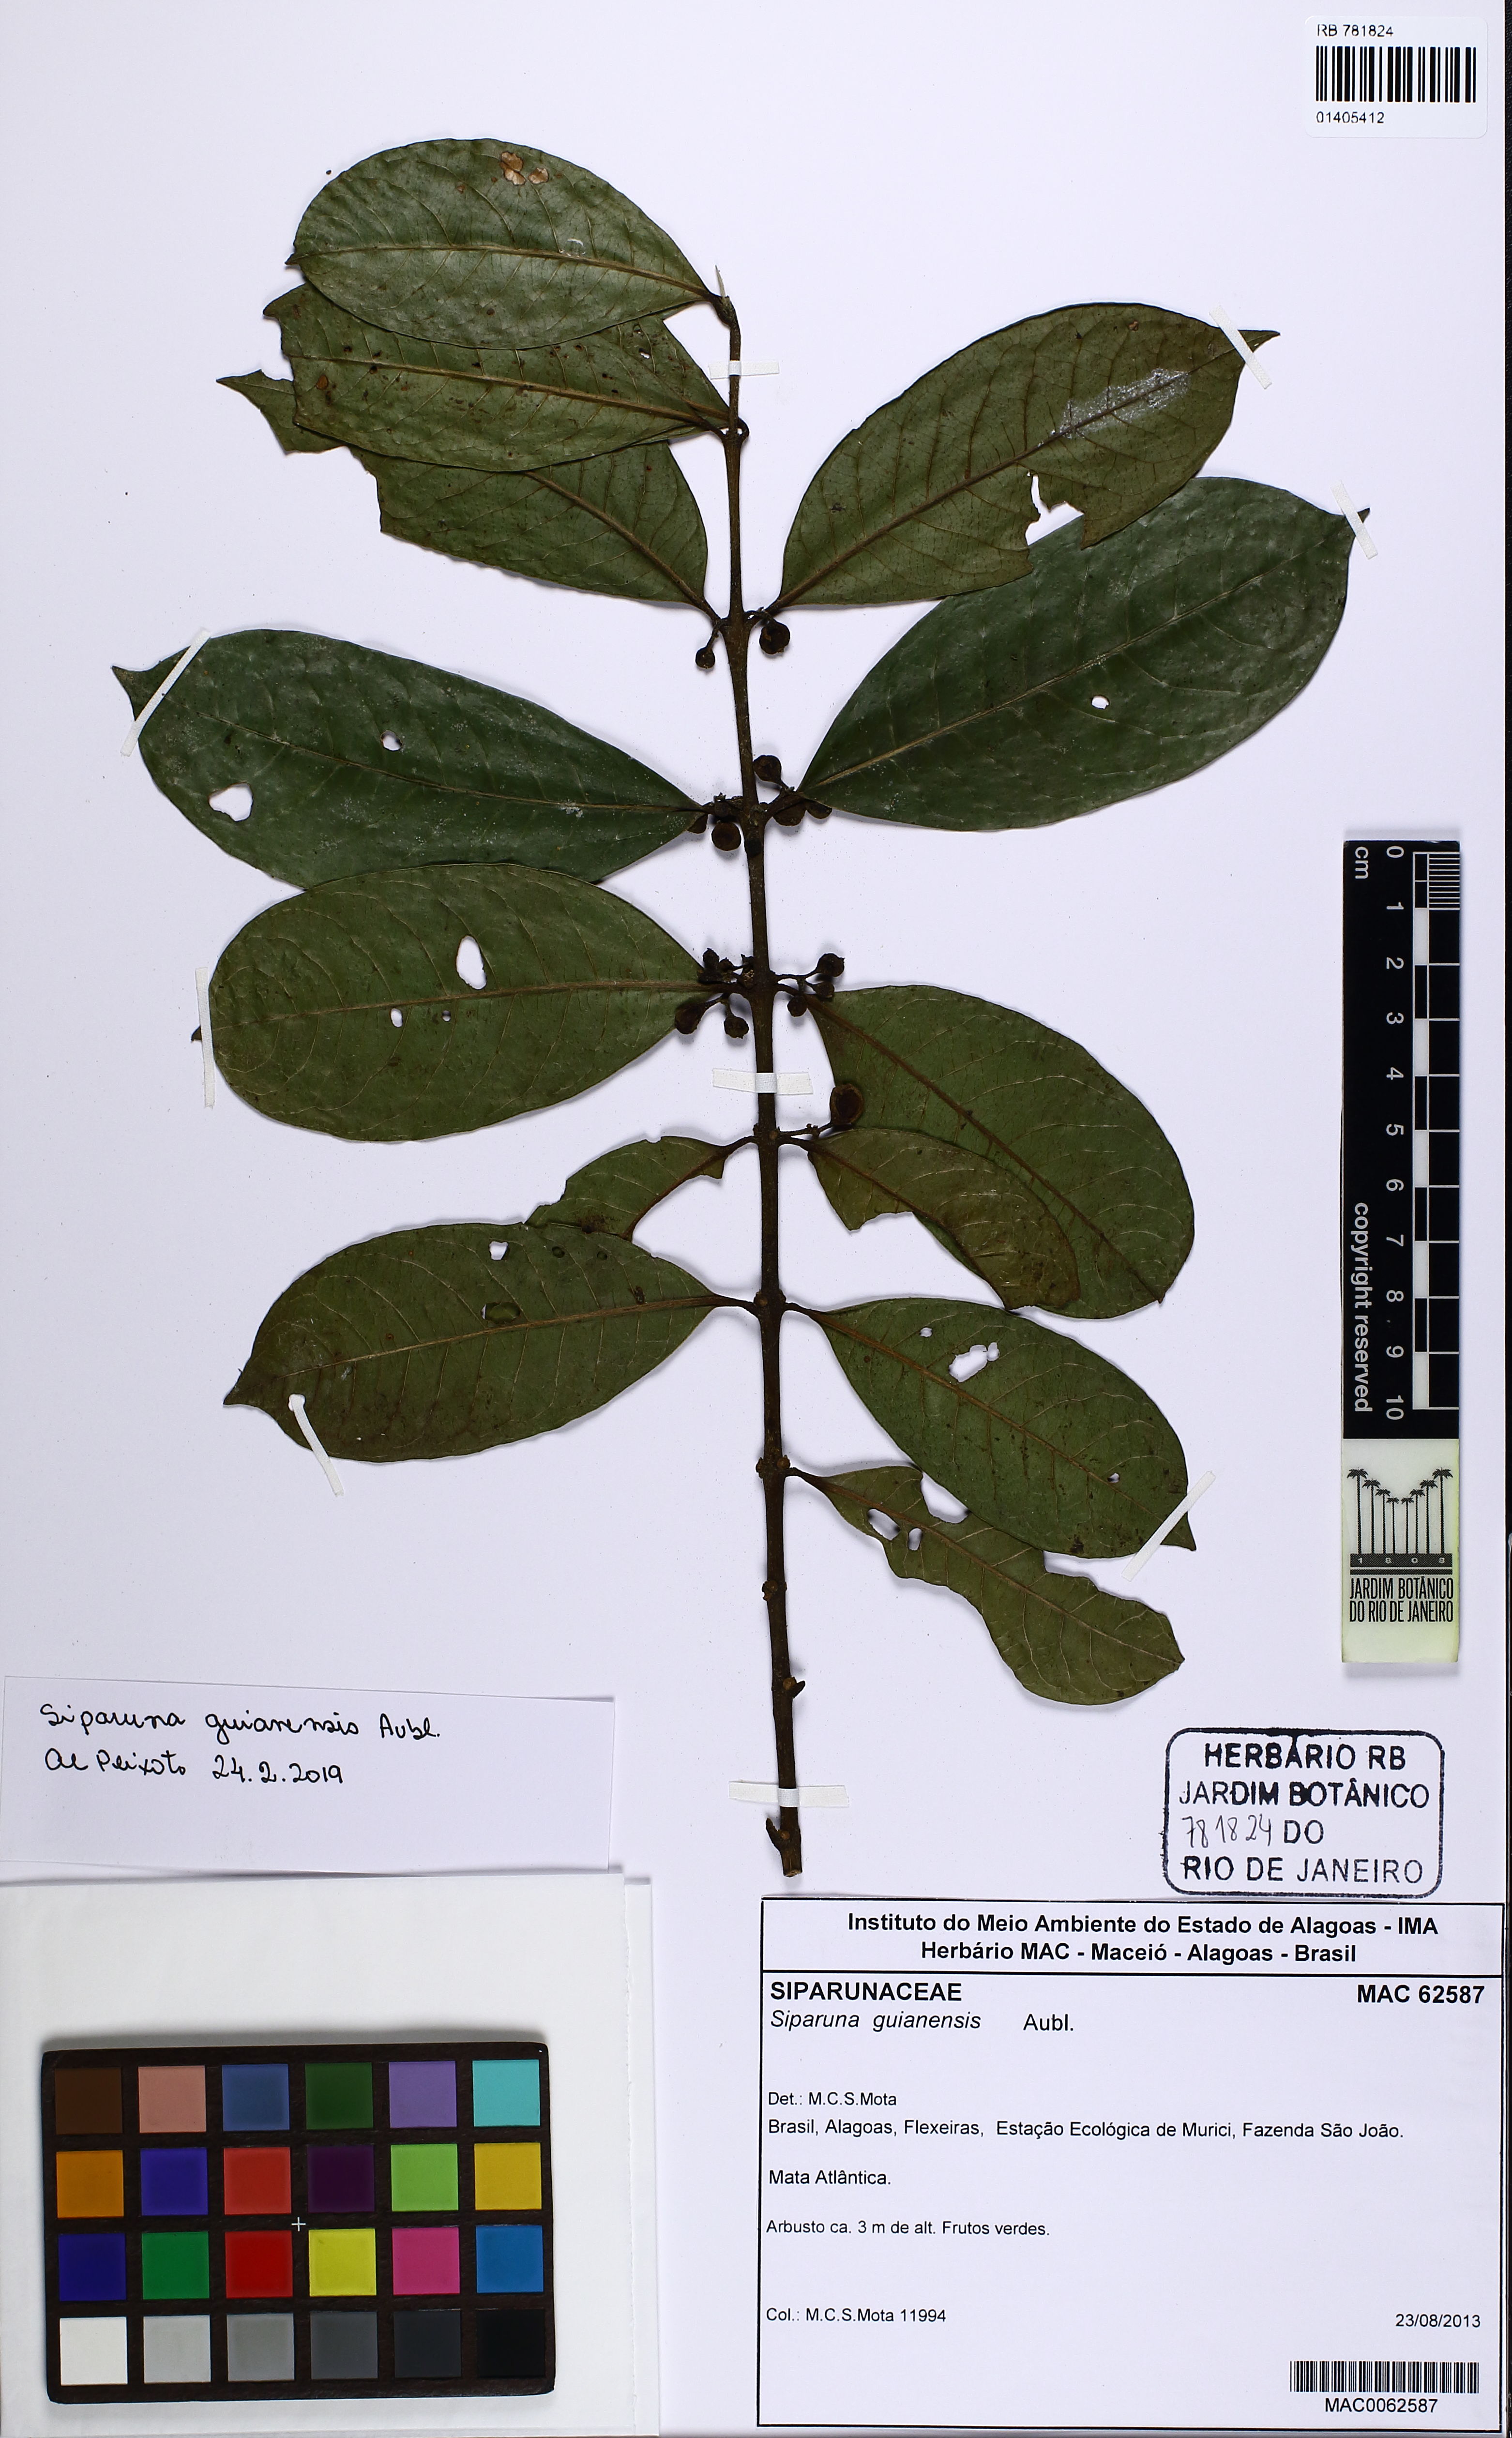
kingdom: Plantae
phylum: Tracheophyta
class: Magnoliopsida
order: Laurales
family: Siparunaceae
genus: Siparuna
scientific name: Siparuna guianensis
